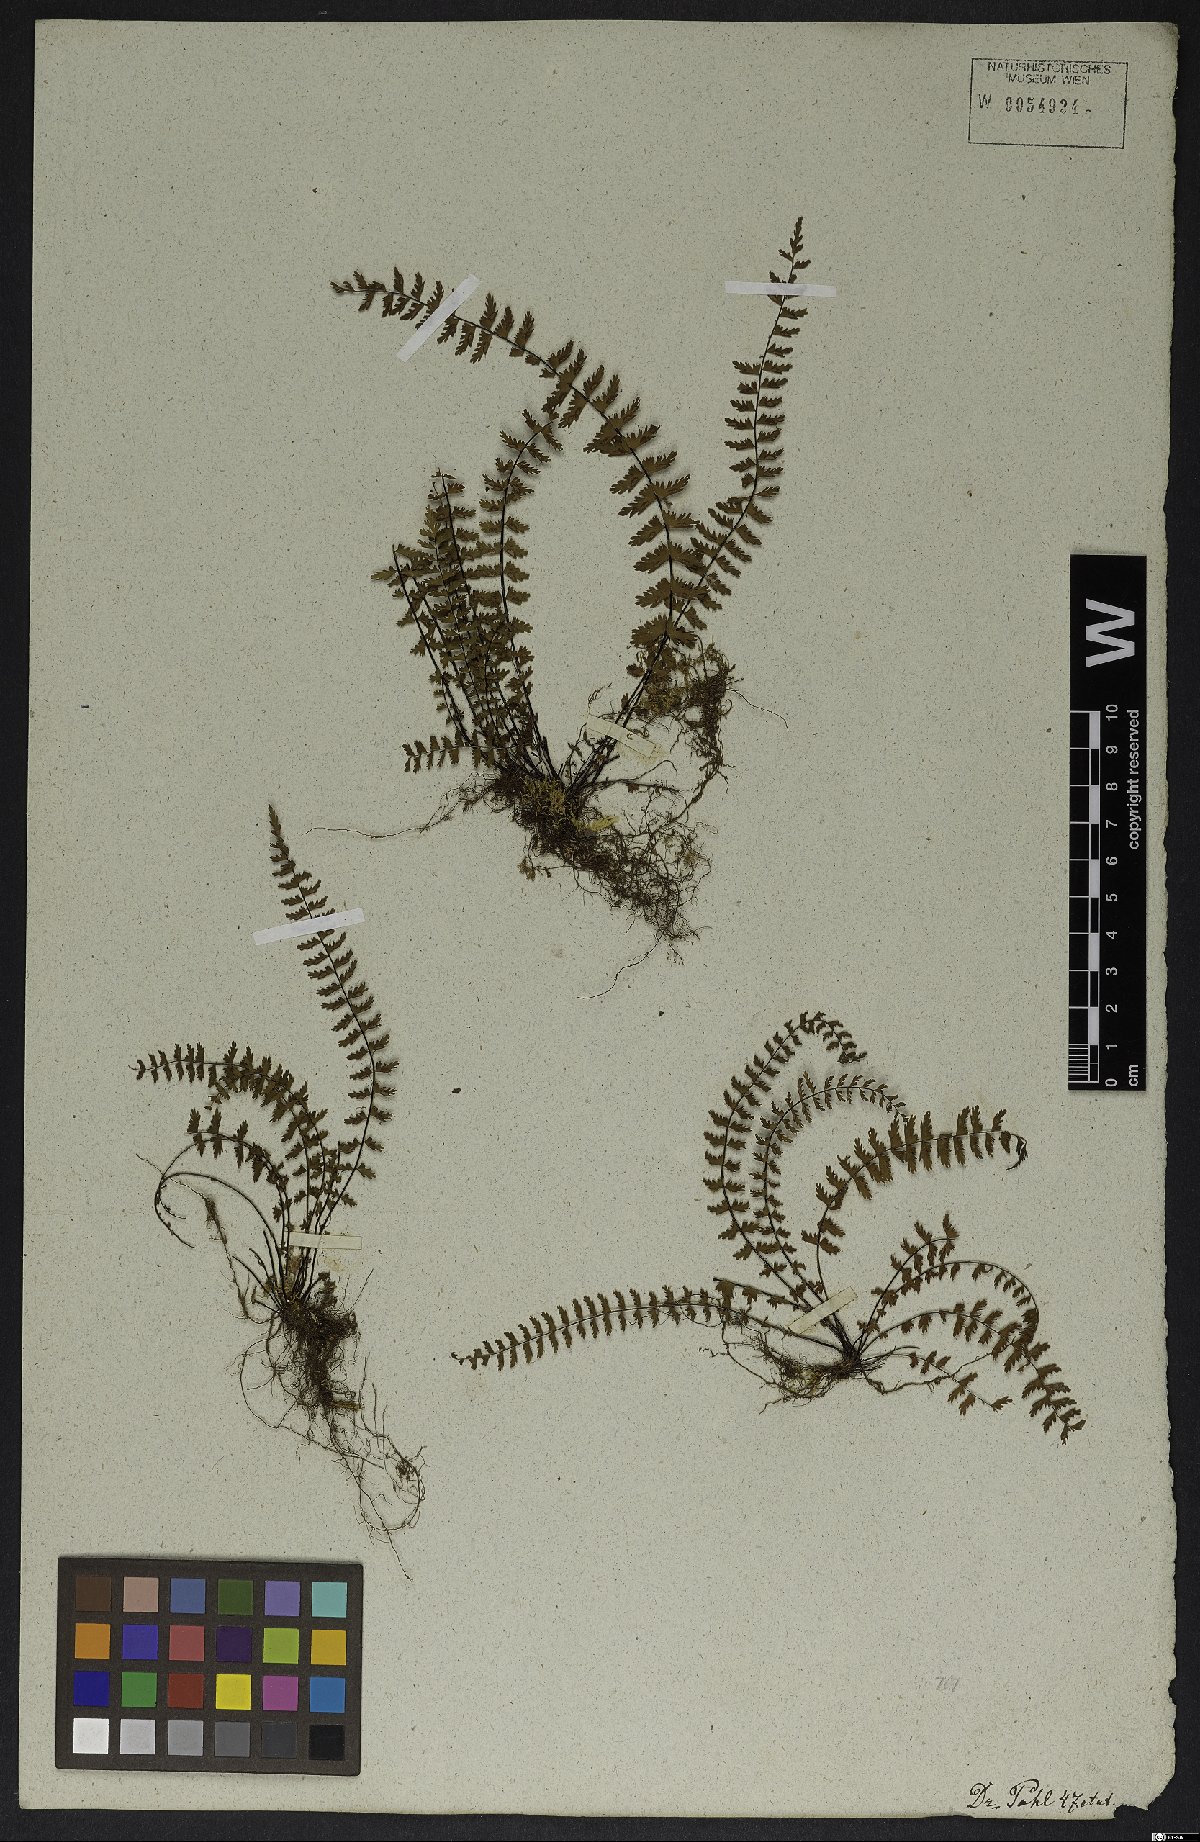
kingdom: Plantae
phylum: Tracheophyta
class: Polypodiopsida
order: Polypodiales
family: Aspleniaceae
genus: Asplenium
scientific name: Asplenium formosum
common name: Showy spleenwort
